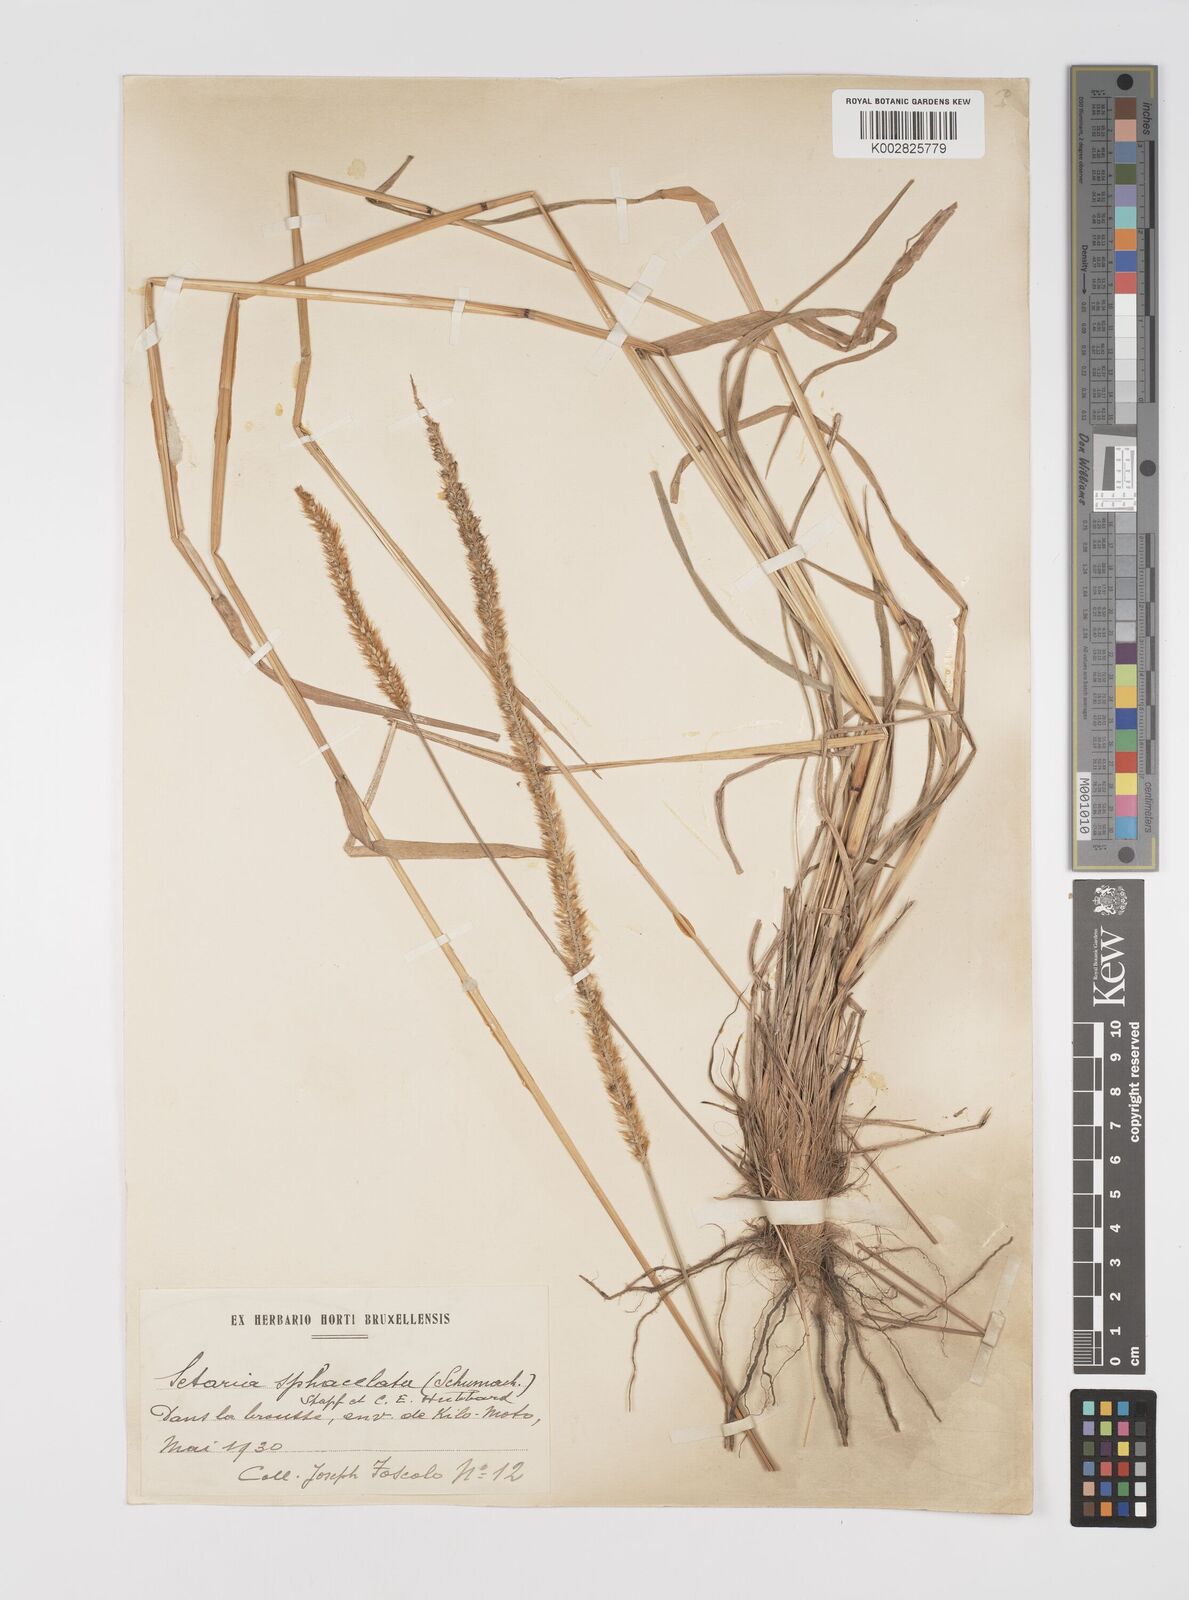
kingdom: Plantae
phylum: Tracheophyta
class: Liliopsida
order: Poales
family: Poaceae
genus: Setaria
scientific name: Setaria sphacelata
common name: African bristlegrass
